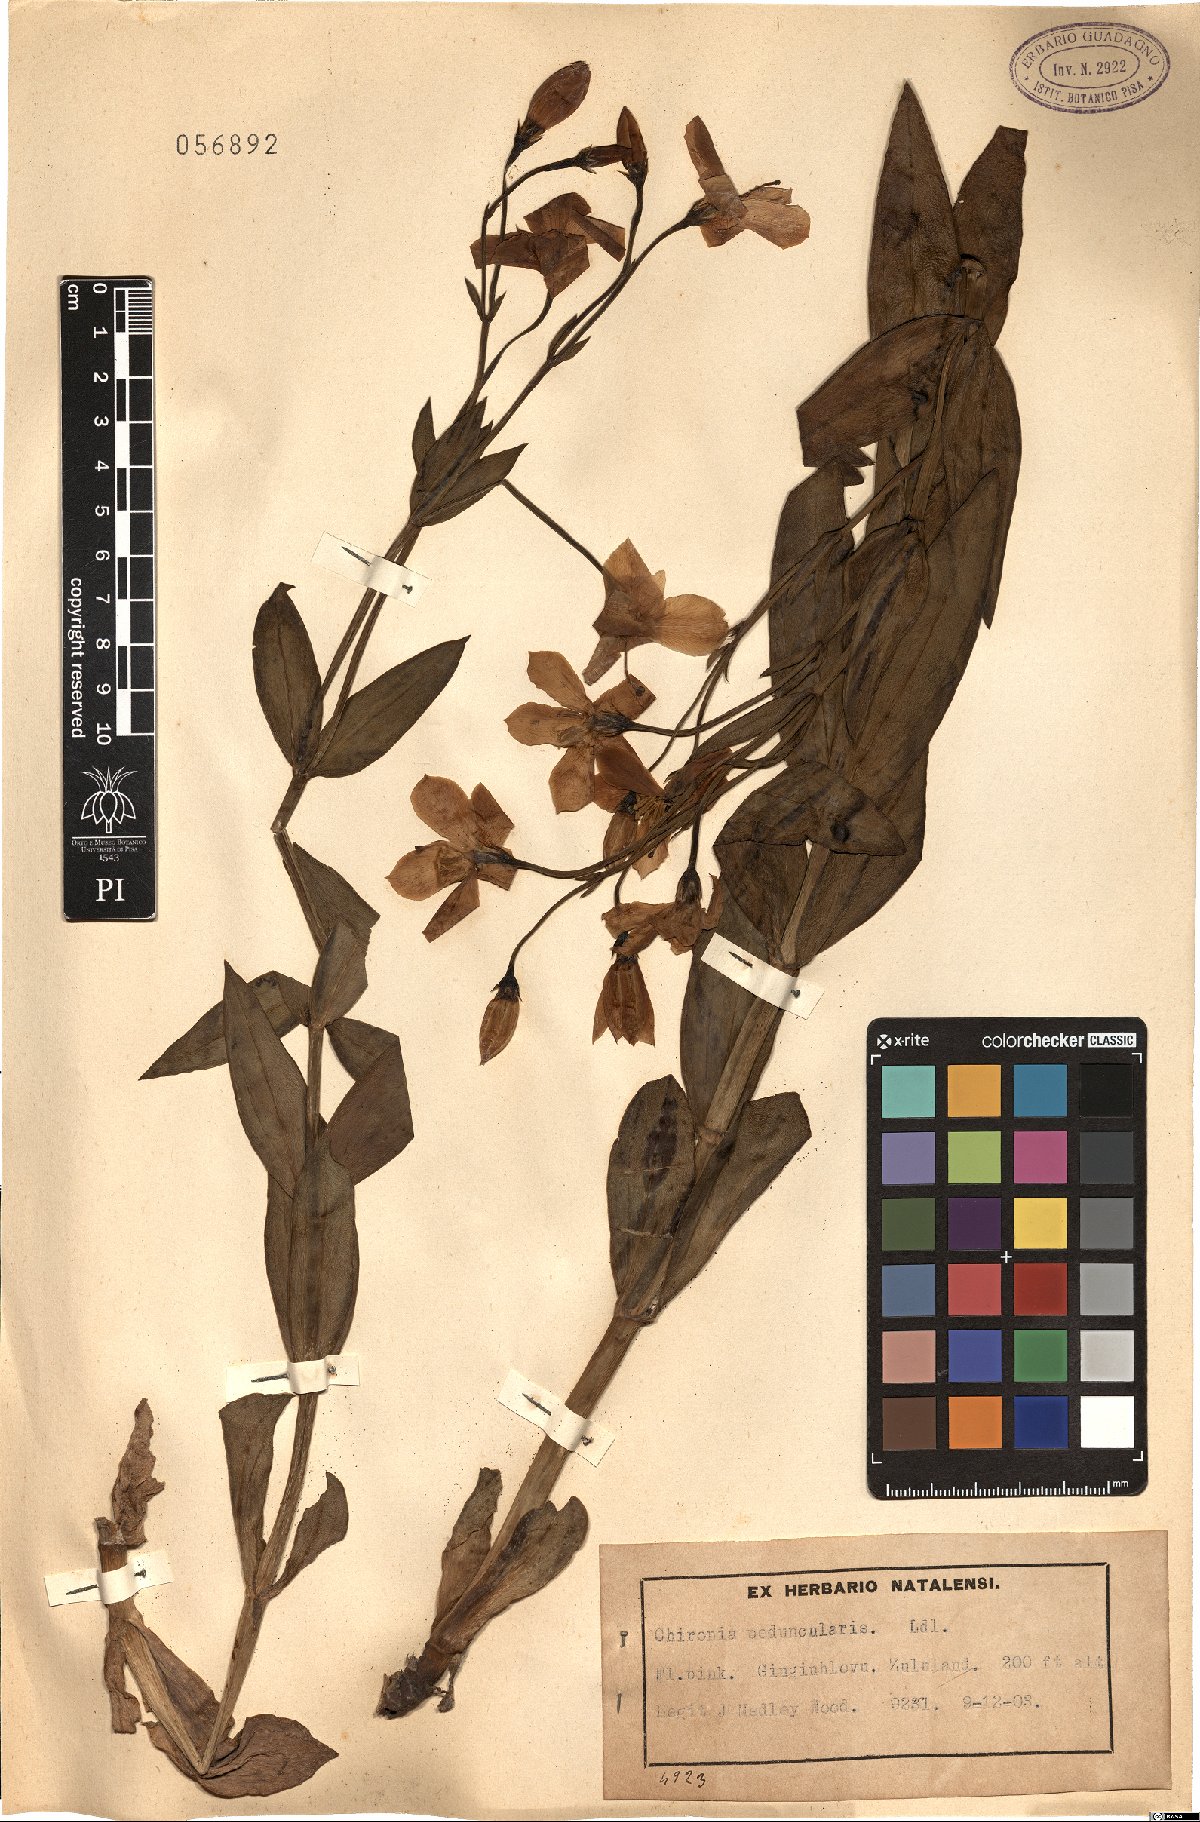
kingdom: Plantae
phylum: Tracheophyta
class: Magnoliopsida
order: Gentianales
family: Gentianaceae
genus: Chironia
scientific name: Chironia peduncularis
